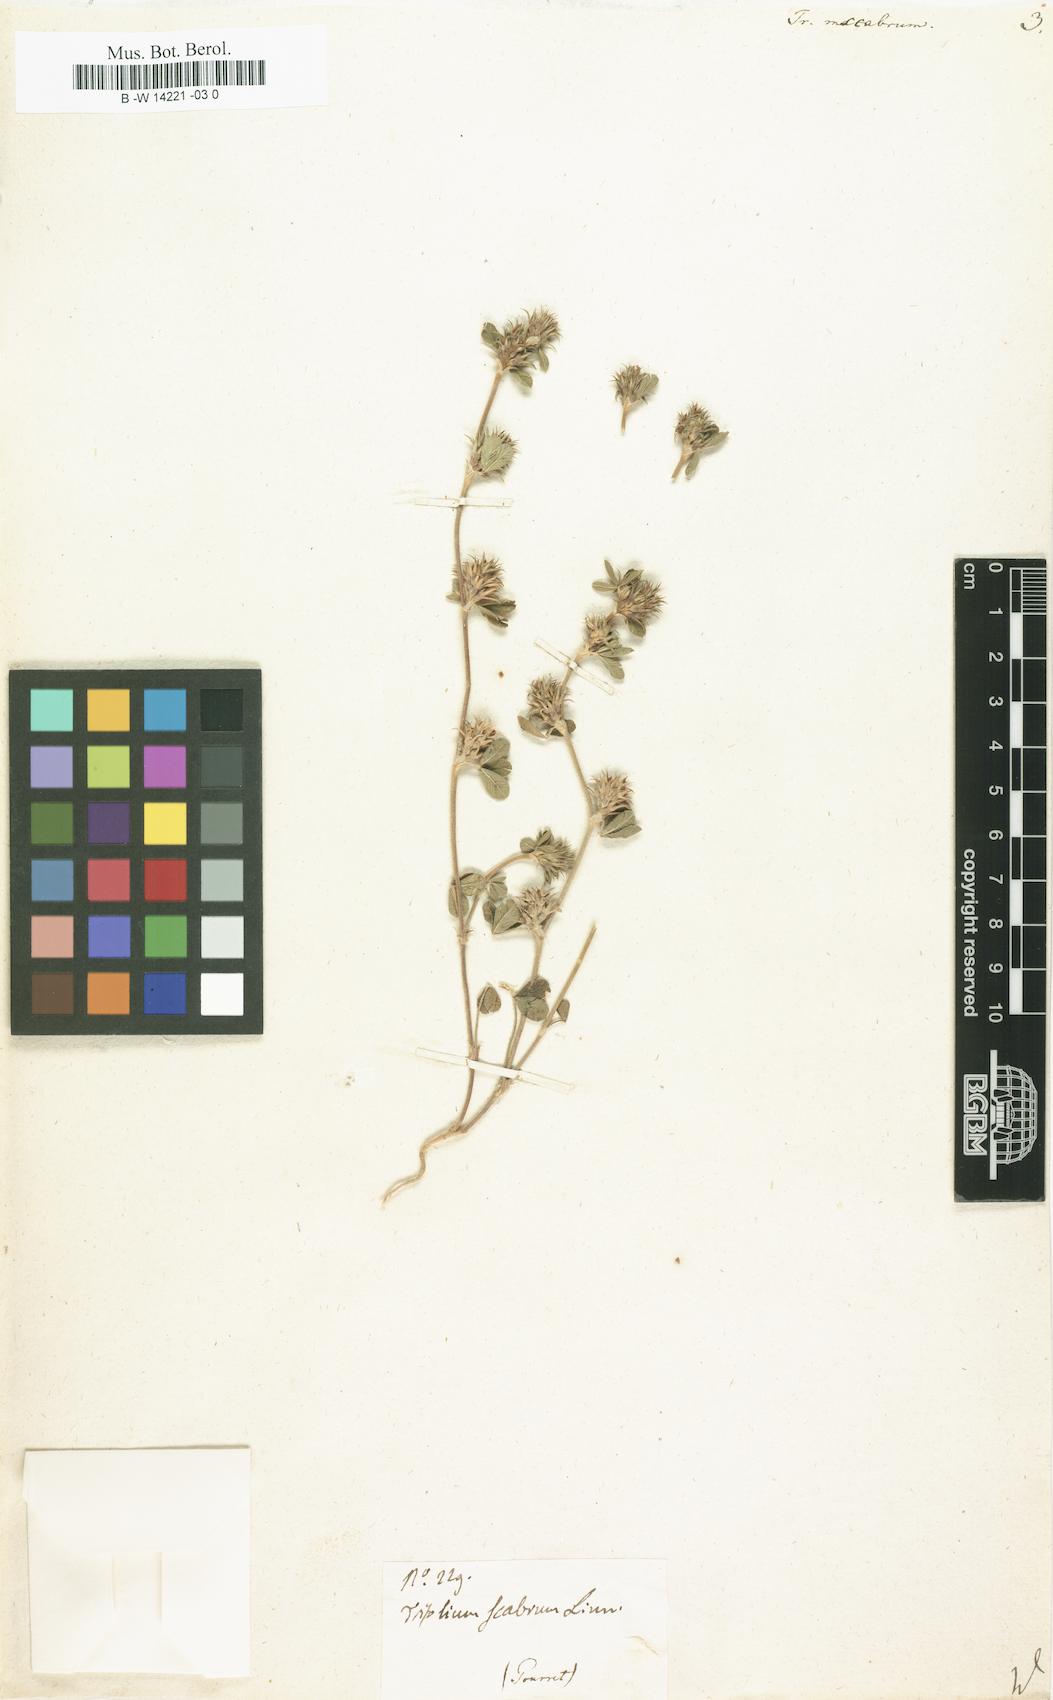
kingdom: Plantae
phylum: Tracheophyta
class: Magnoliopsida
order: Fabales
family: Fabaceae
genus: Trifolium
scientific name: Trifolium scabrum
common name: Rough clover
